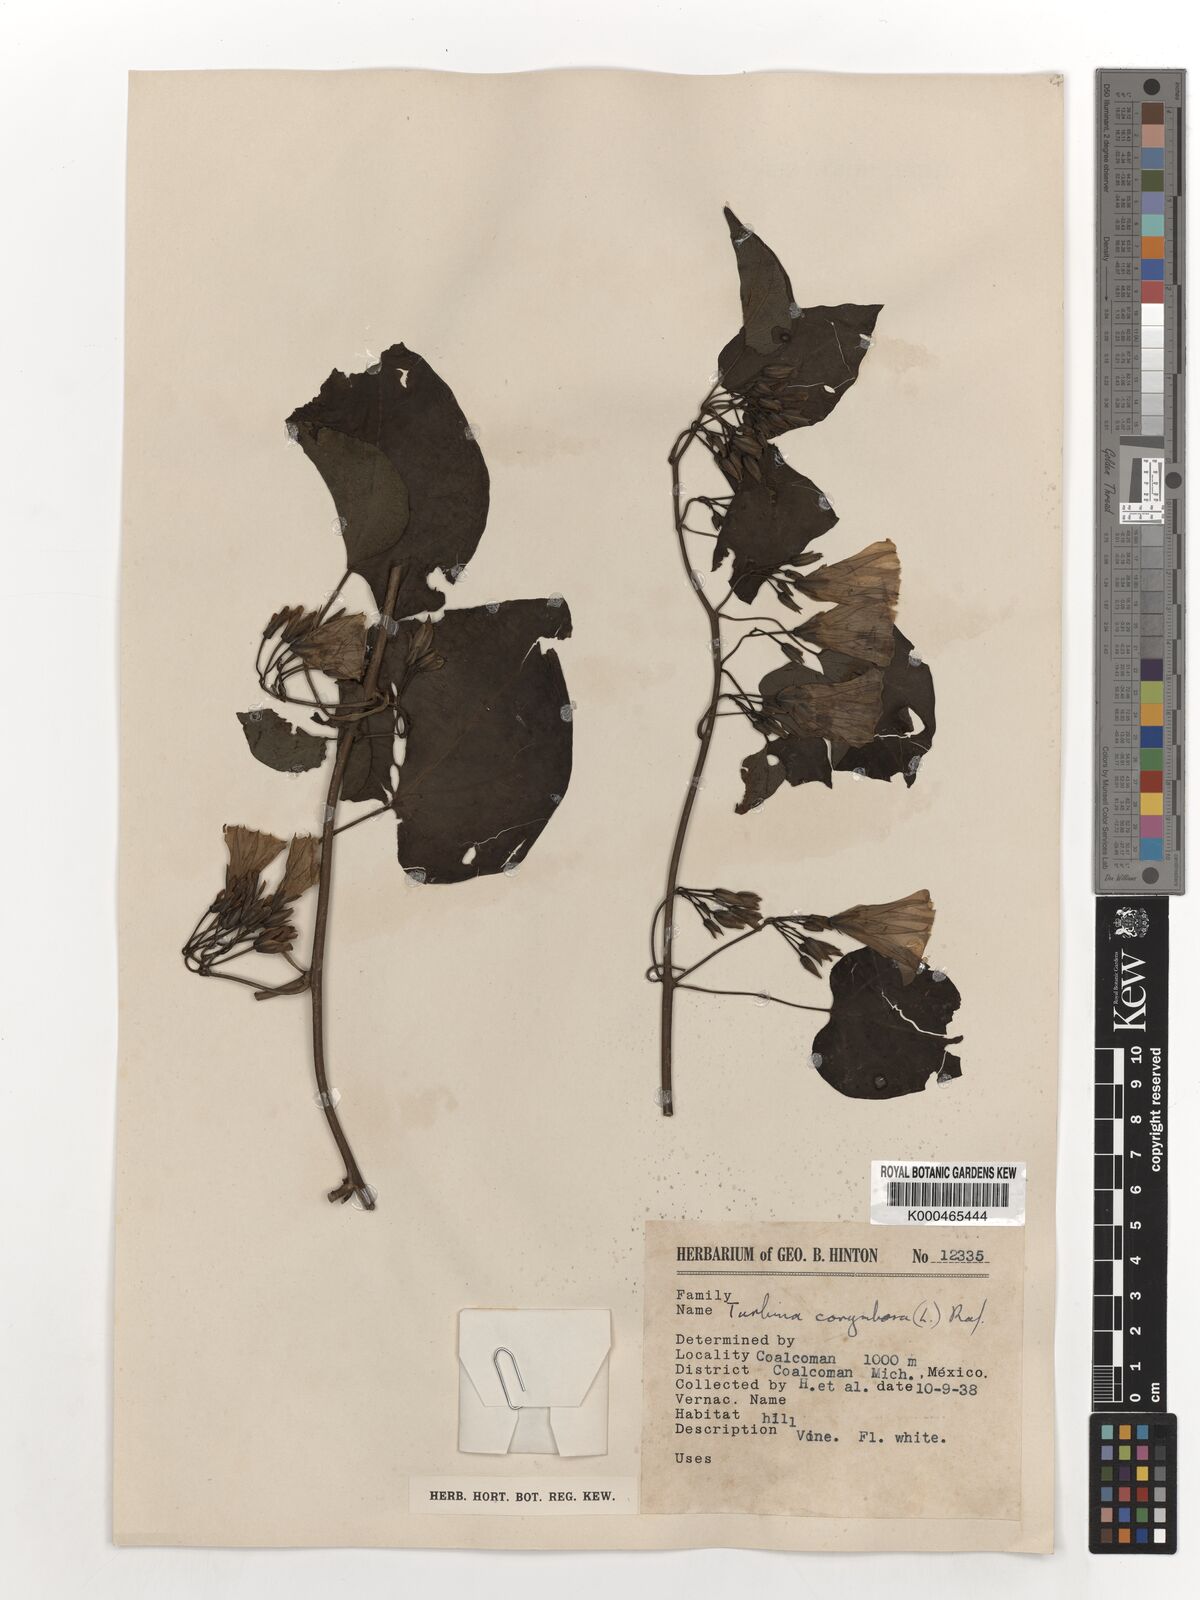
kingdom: Plantae
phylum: Tracheophyta
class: Magnoliopsida
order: Solanales
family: Convolvulaceae
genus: Ipomoea
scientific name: Ipomoea corymbosa
